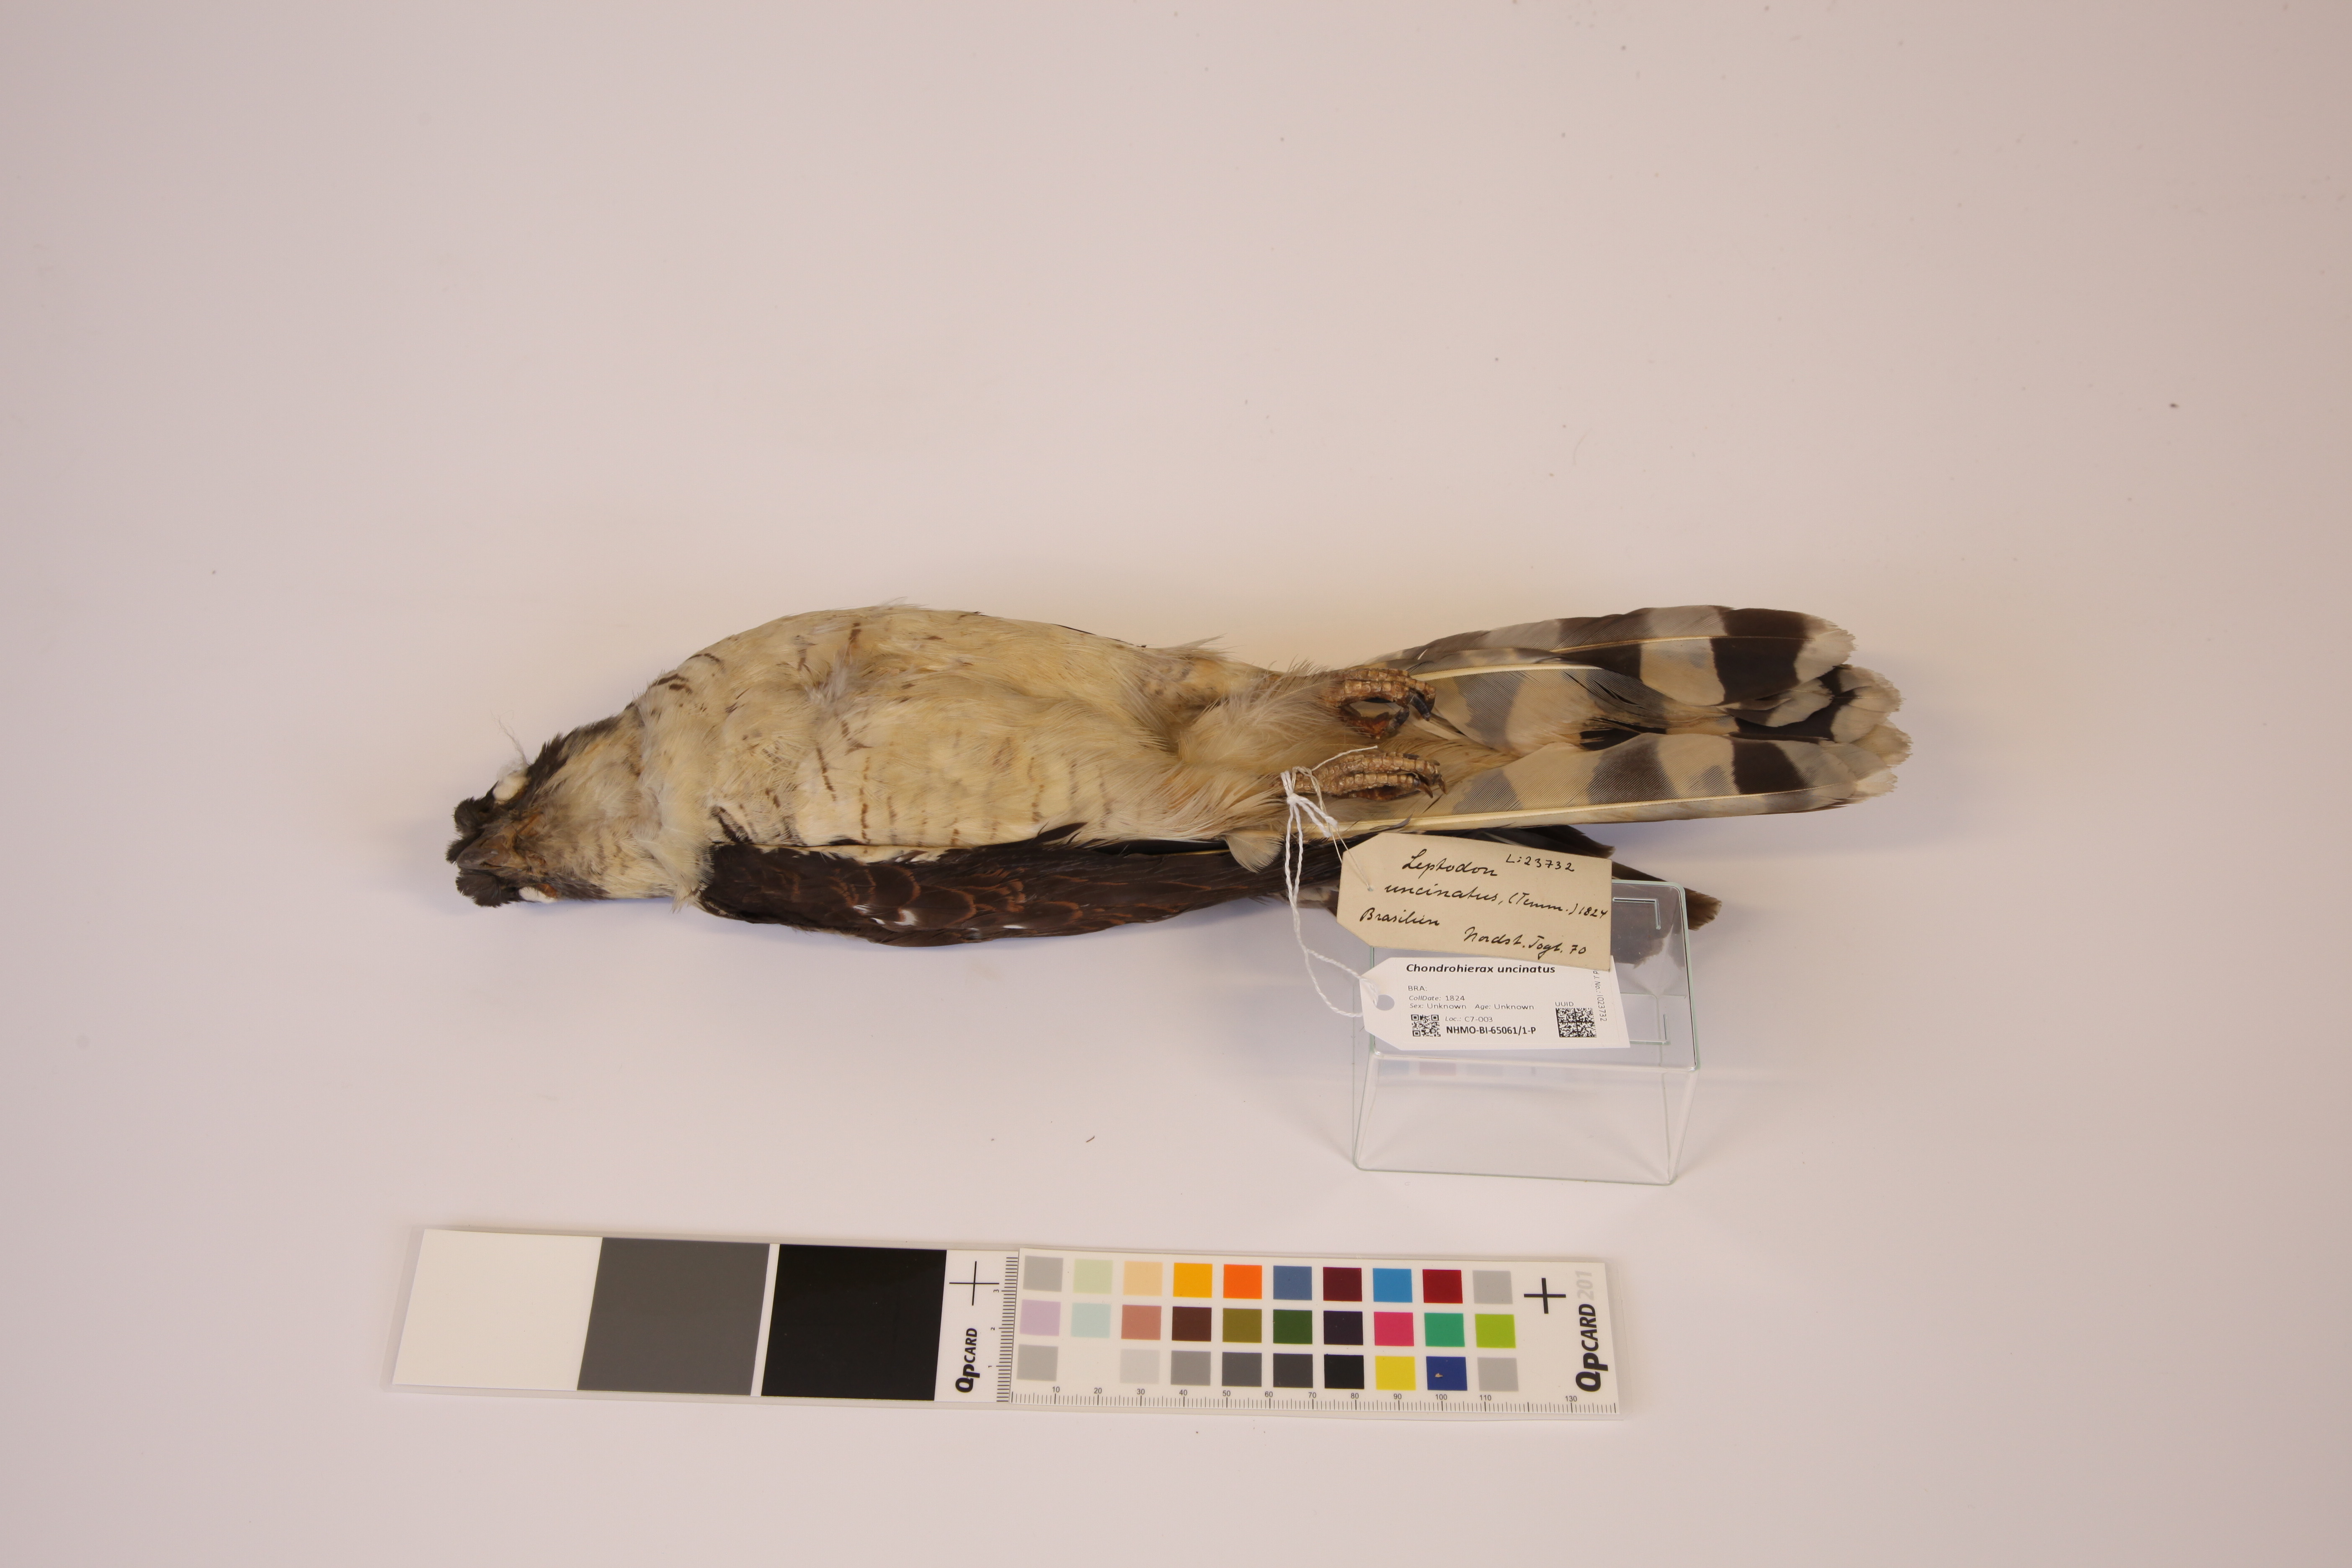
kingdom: Animalia
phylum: Chordata
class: Aves
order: Accipitriformes
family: Accipitridae
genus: Chondrohierax
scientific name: Chondrohierax uncinatus
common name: Hook-billed kite
